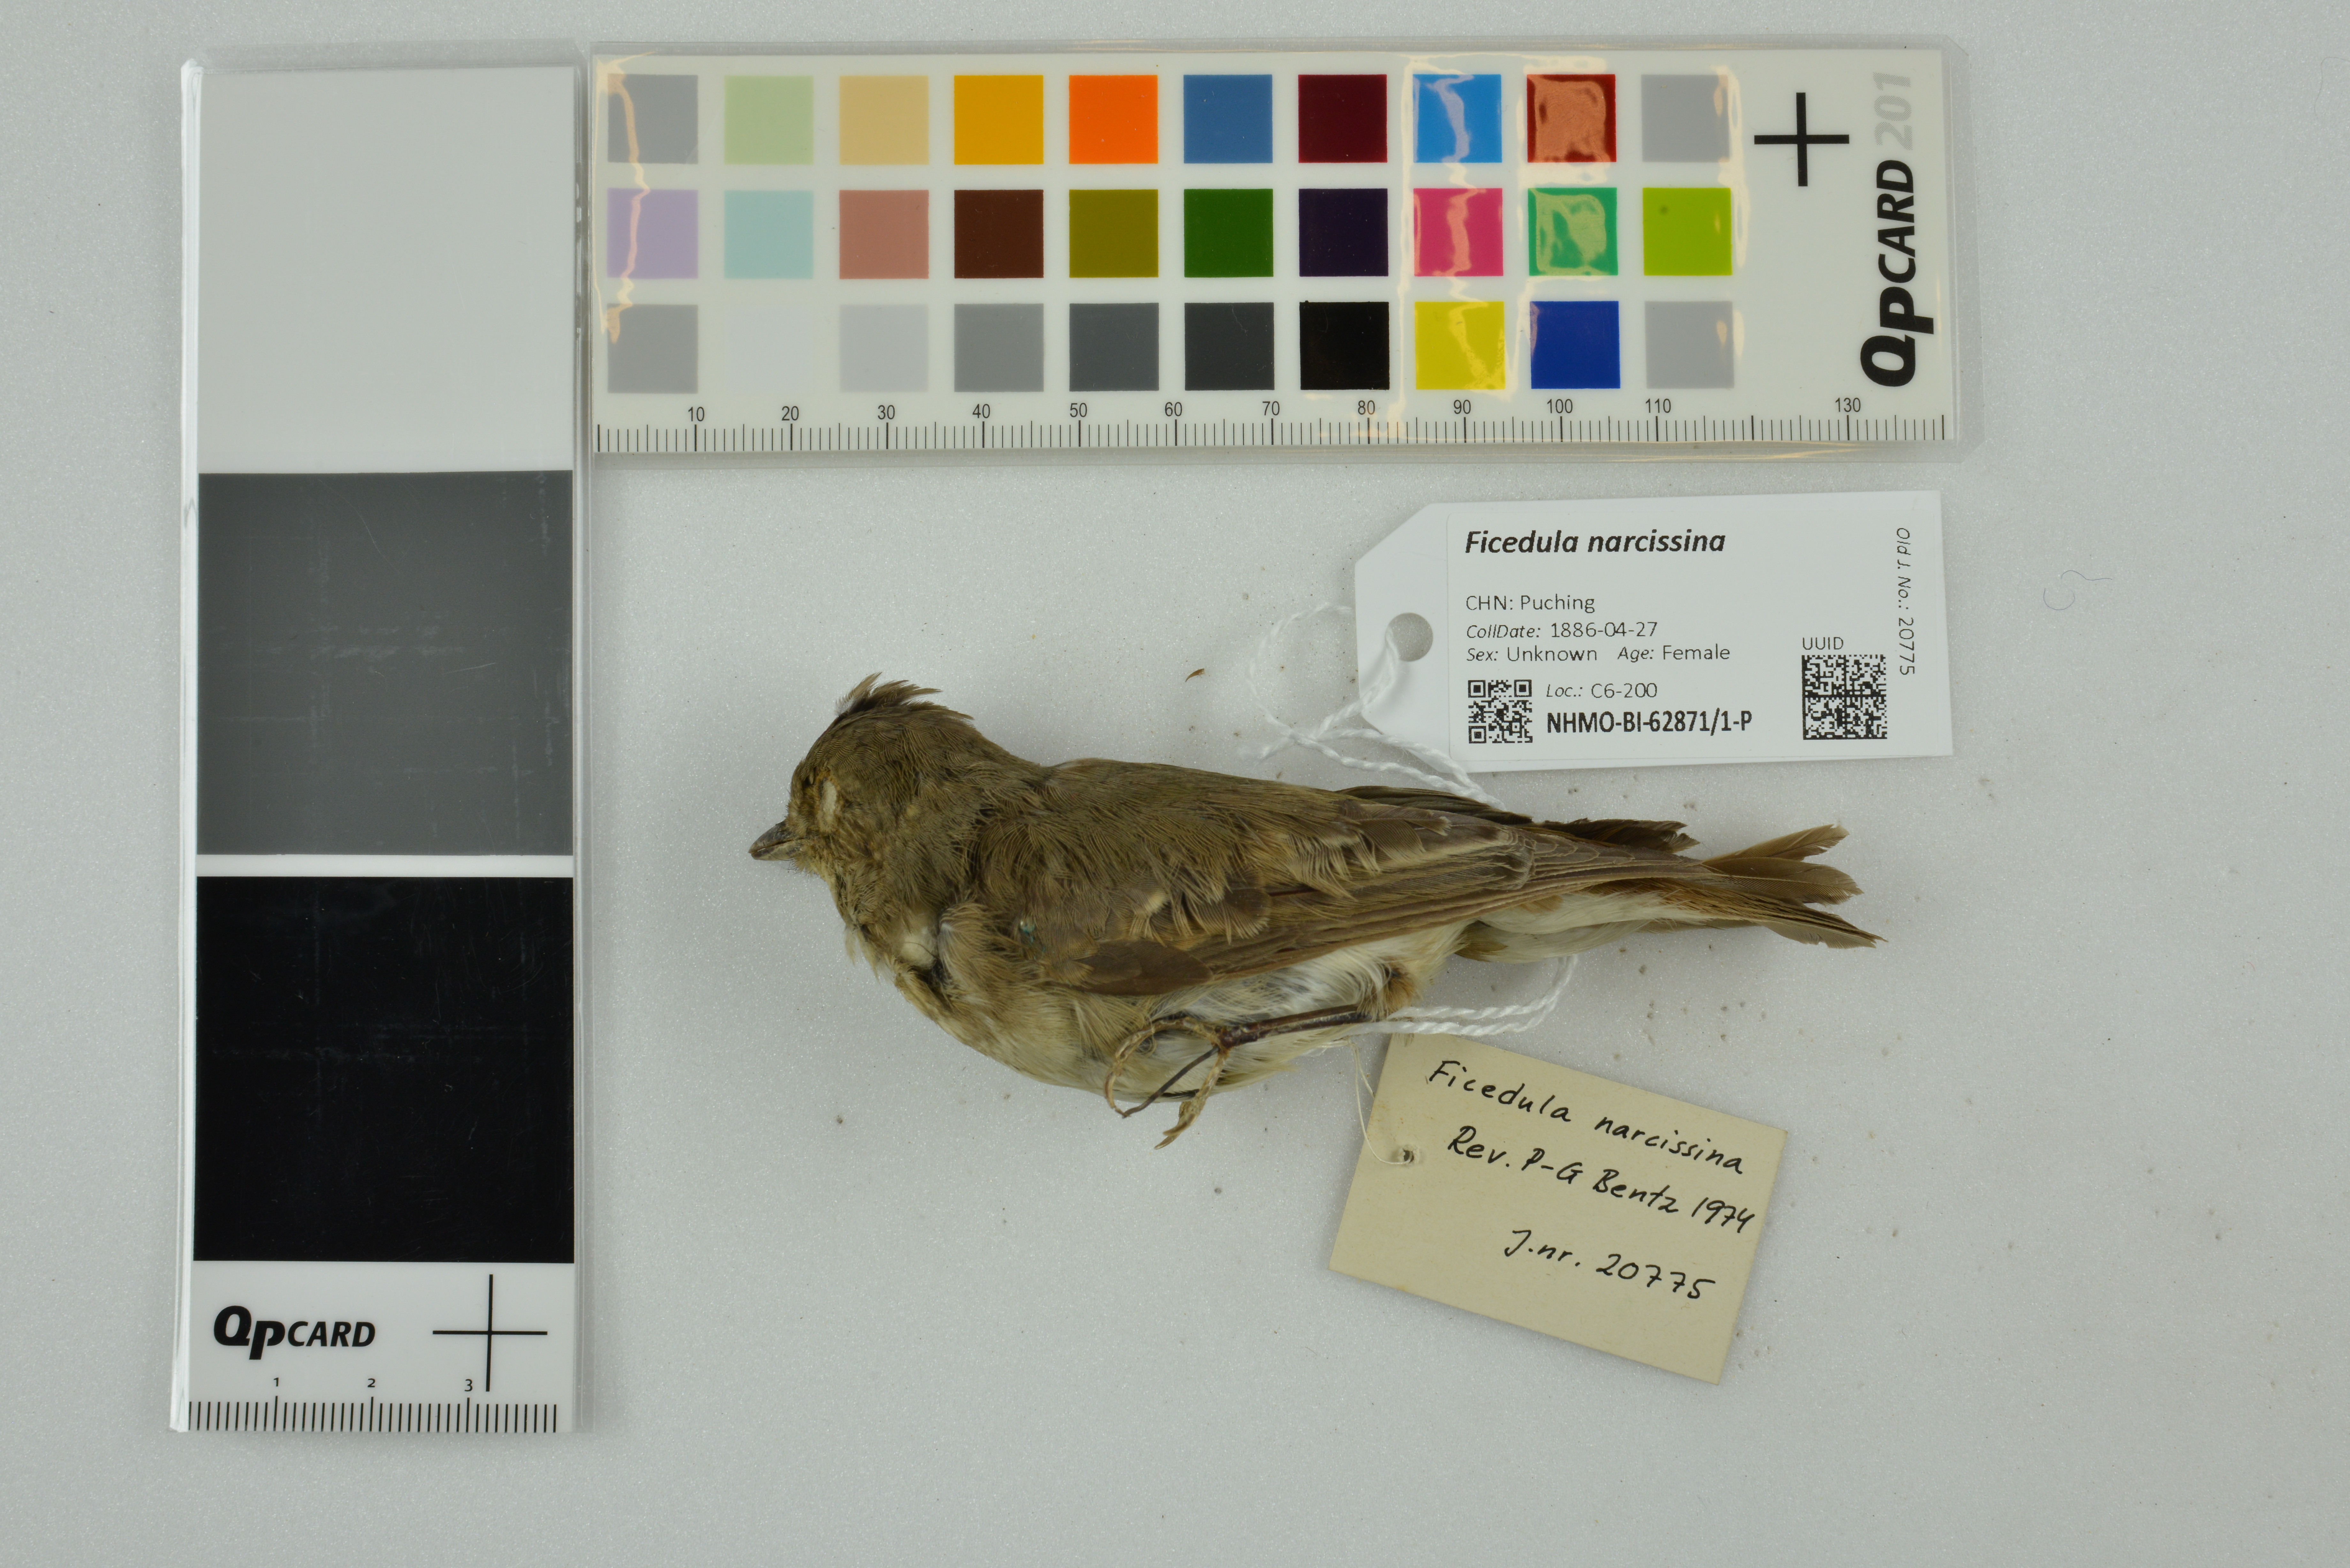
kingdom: Animalia
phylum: Chordata
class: Aves
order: Passeriformes
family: Muscicapidae
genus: Ficedula
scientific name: Ficedula narcissina
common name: Narcissus flycatcher
